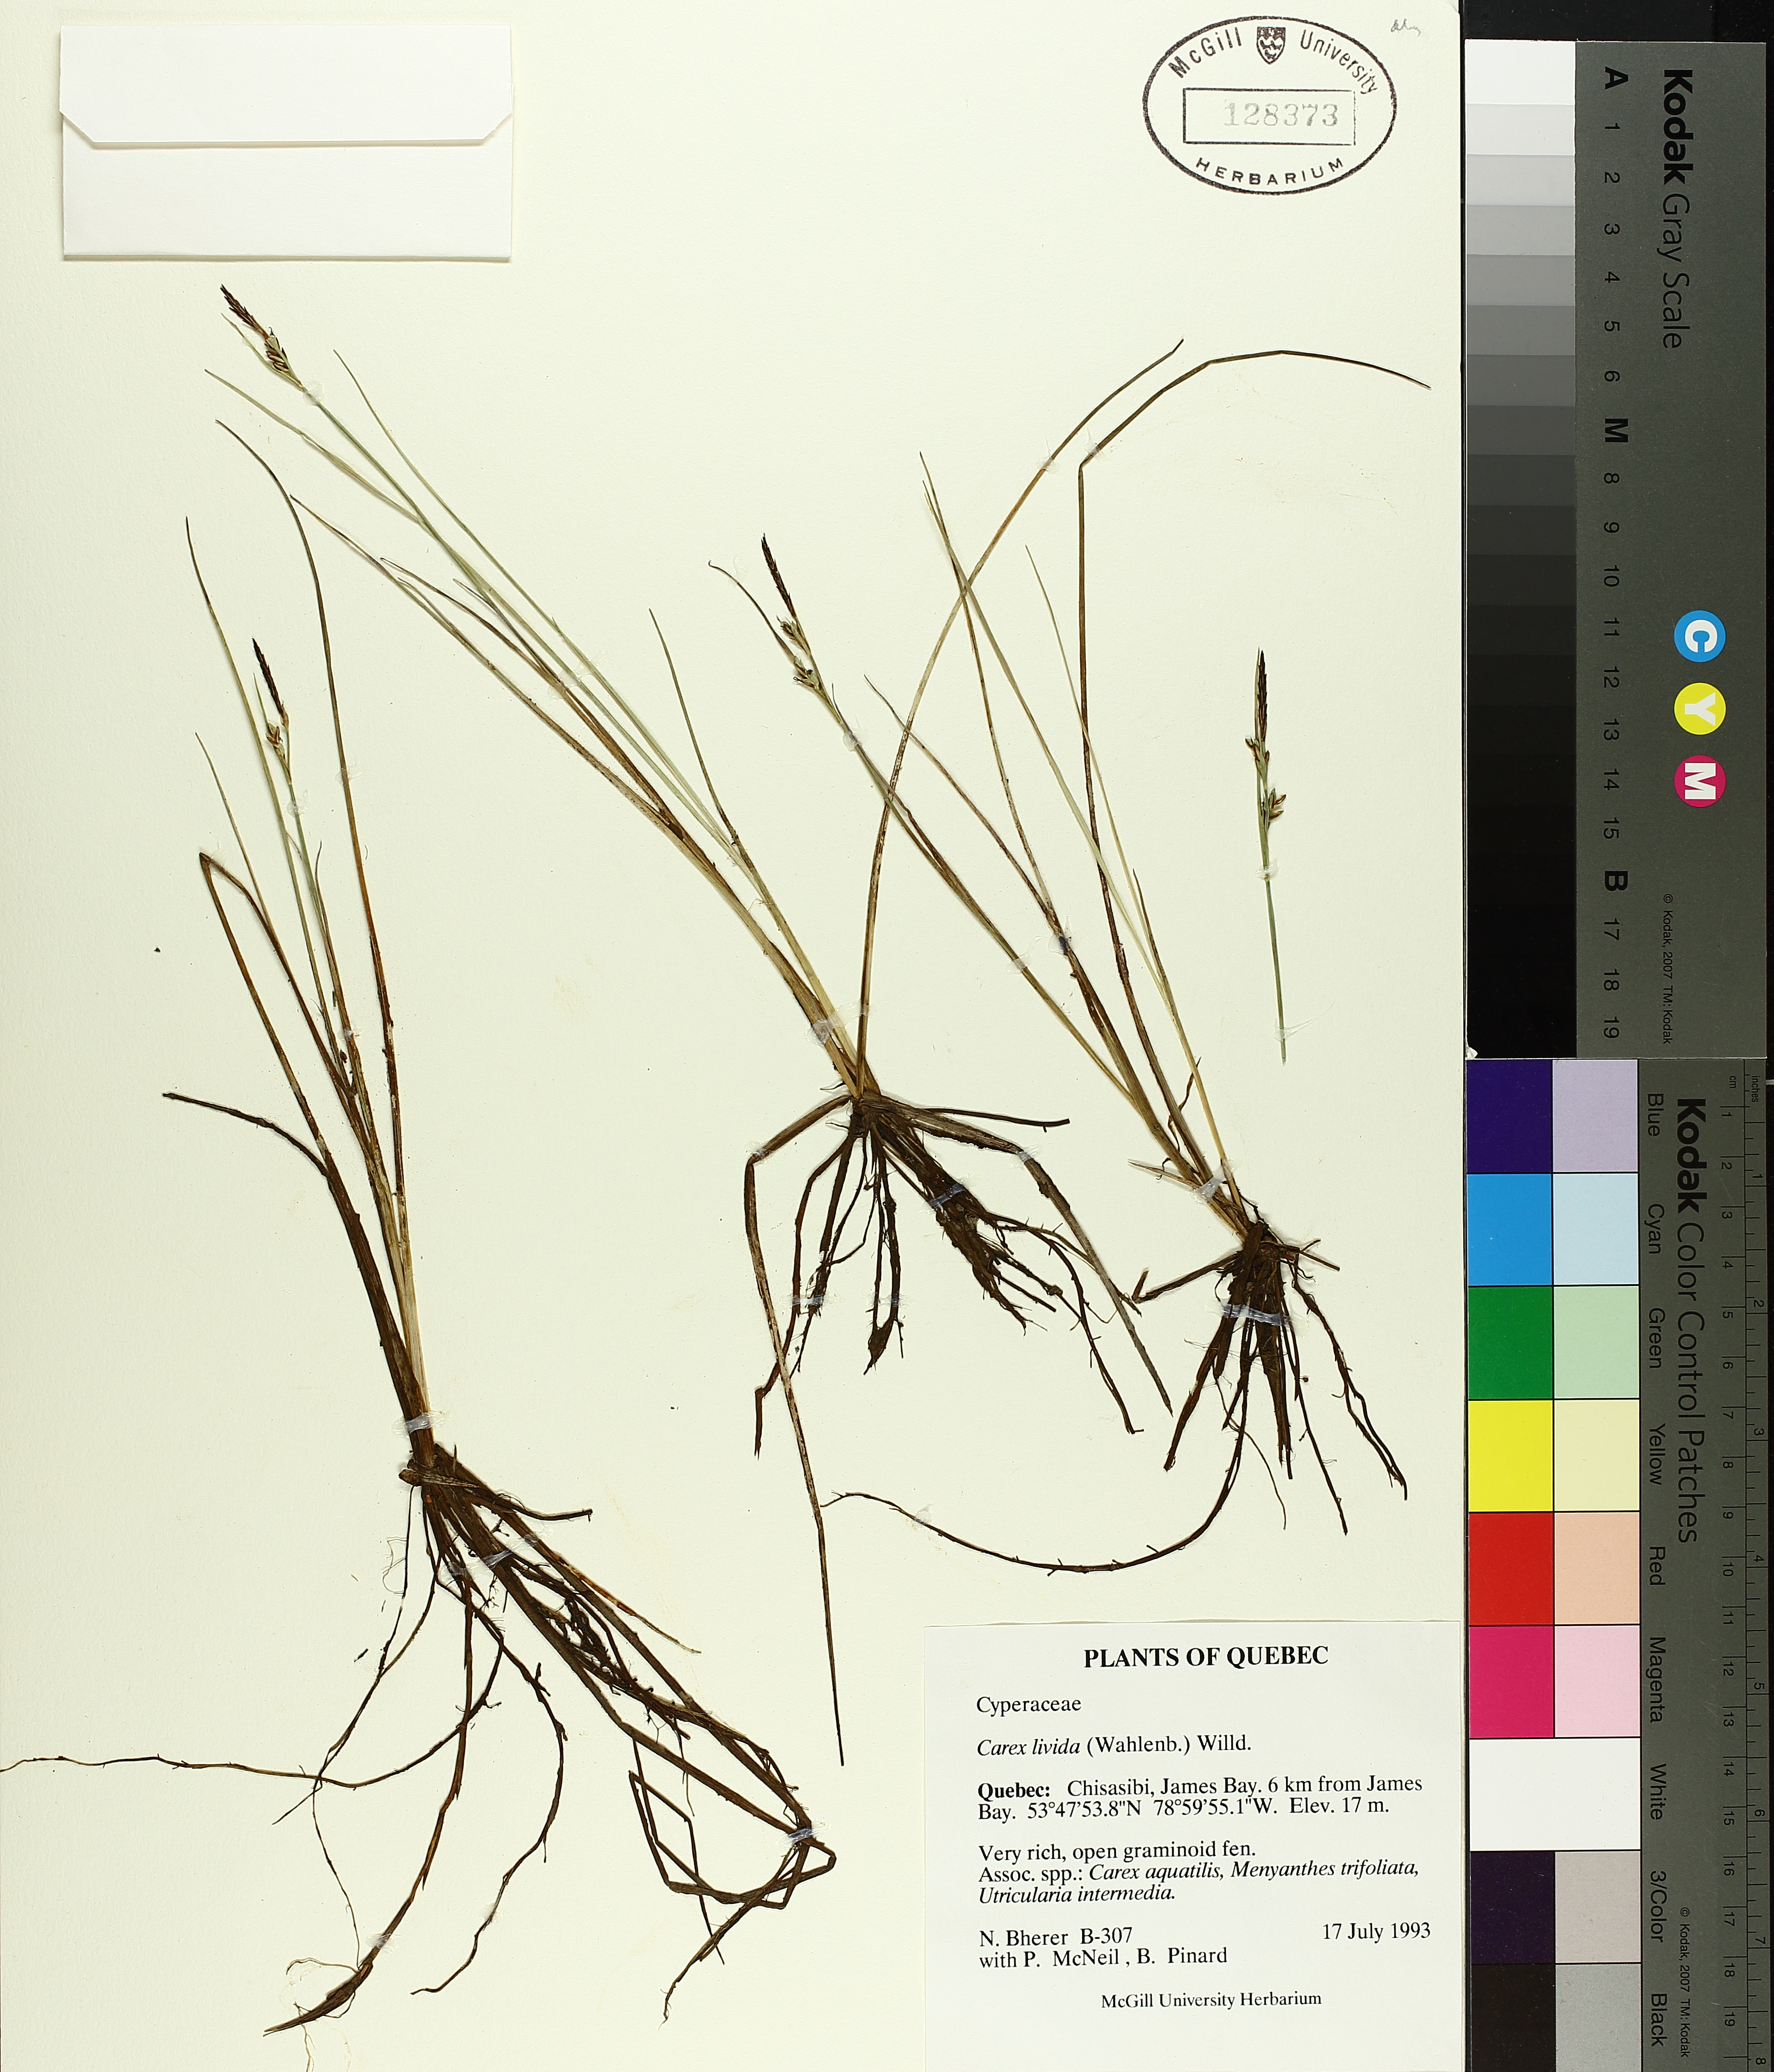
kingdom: Plantae
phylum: Tracheophyta
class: Liliopsida
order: Poales
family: Cyperaceae
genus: Carex
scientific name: Carex livida
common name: Livid sedge
